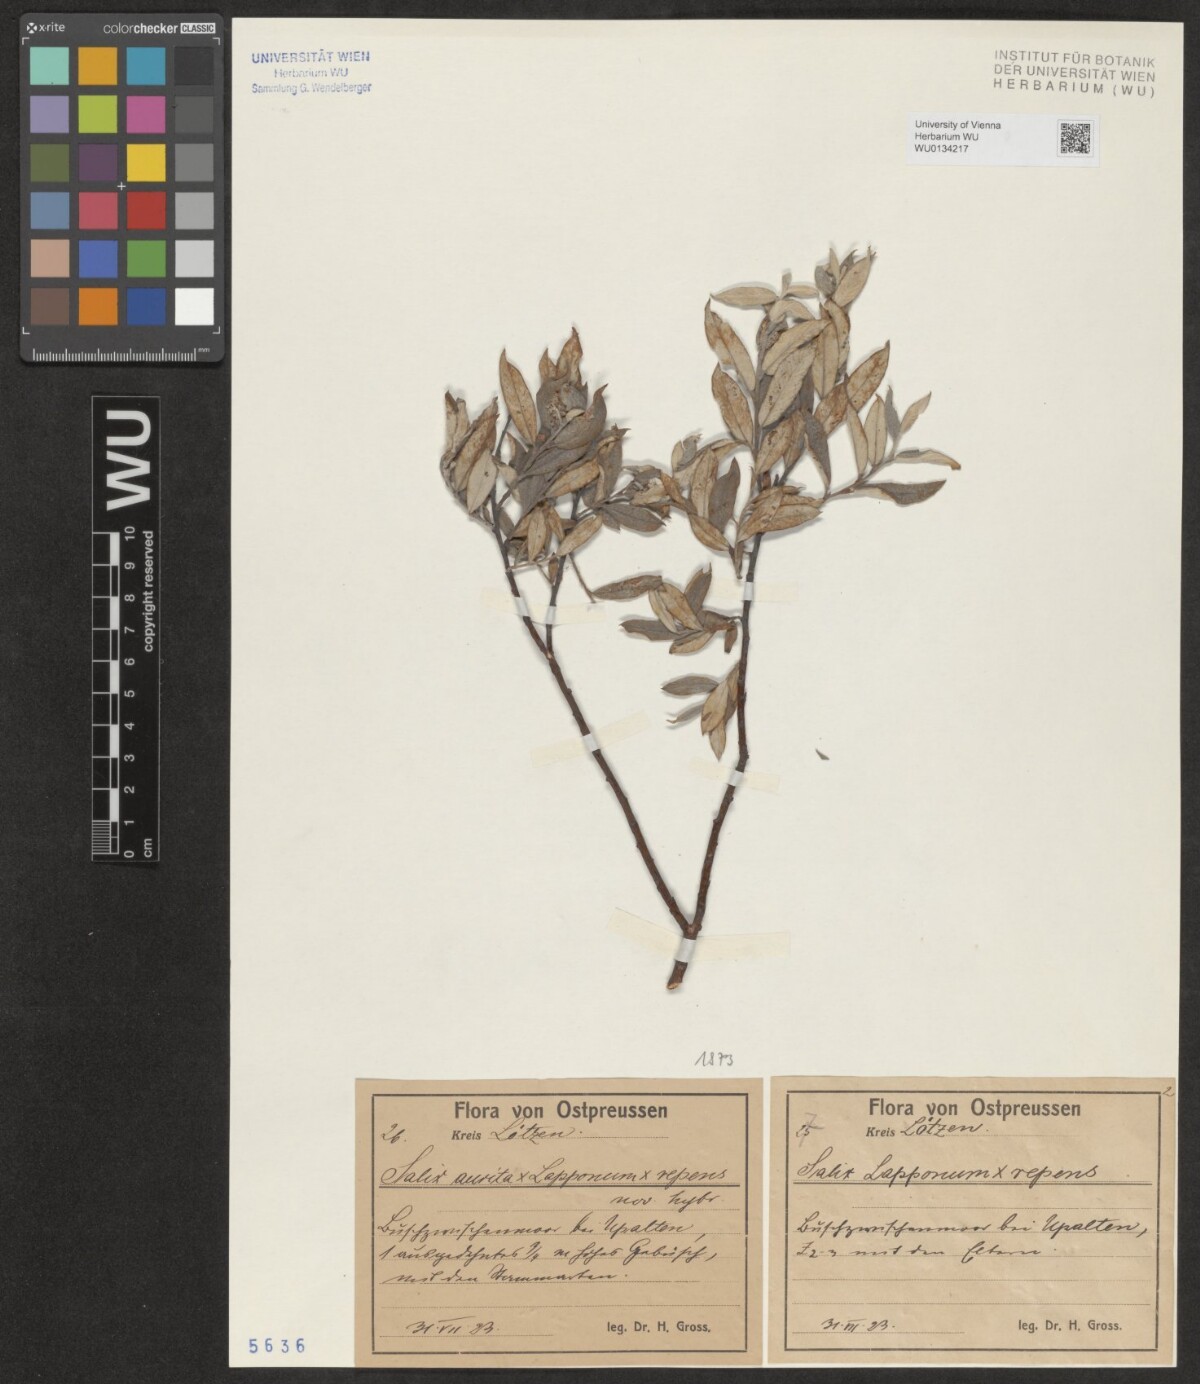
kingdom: Plantae
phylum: Tracheophyta
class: Magnoliopsida
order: Malpighiales
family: Salicaceae
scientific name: Salicaceae
